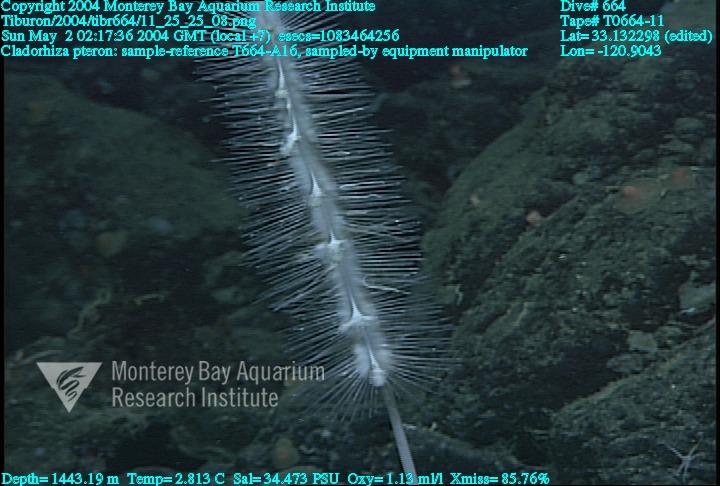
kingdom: Animalia
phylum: Porifera
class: Demospongiae
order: Poecilosclerida
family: Cladorhizidae
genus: Nullarbora
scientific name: Nullarbora pteron
